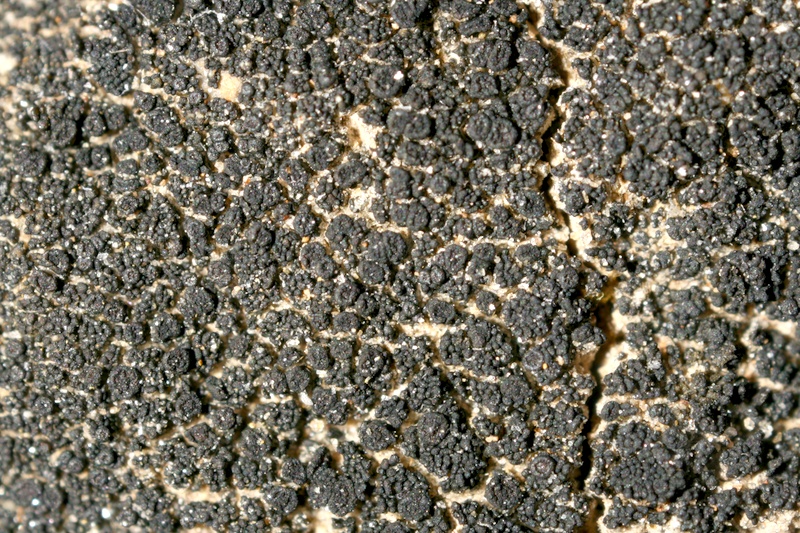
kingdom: Fungi
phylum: Ascomycota
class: Lichinomycetes
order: Lichinales
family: Lichinaceae
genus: Psorotichia
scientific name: Psorotichia hassei
